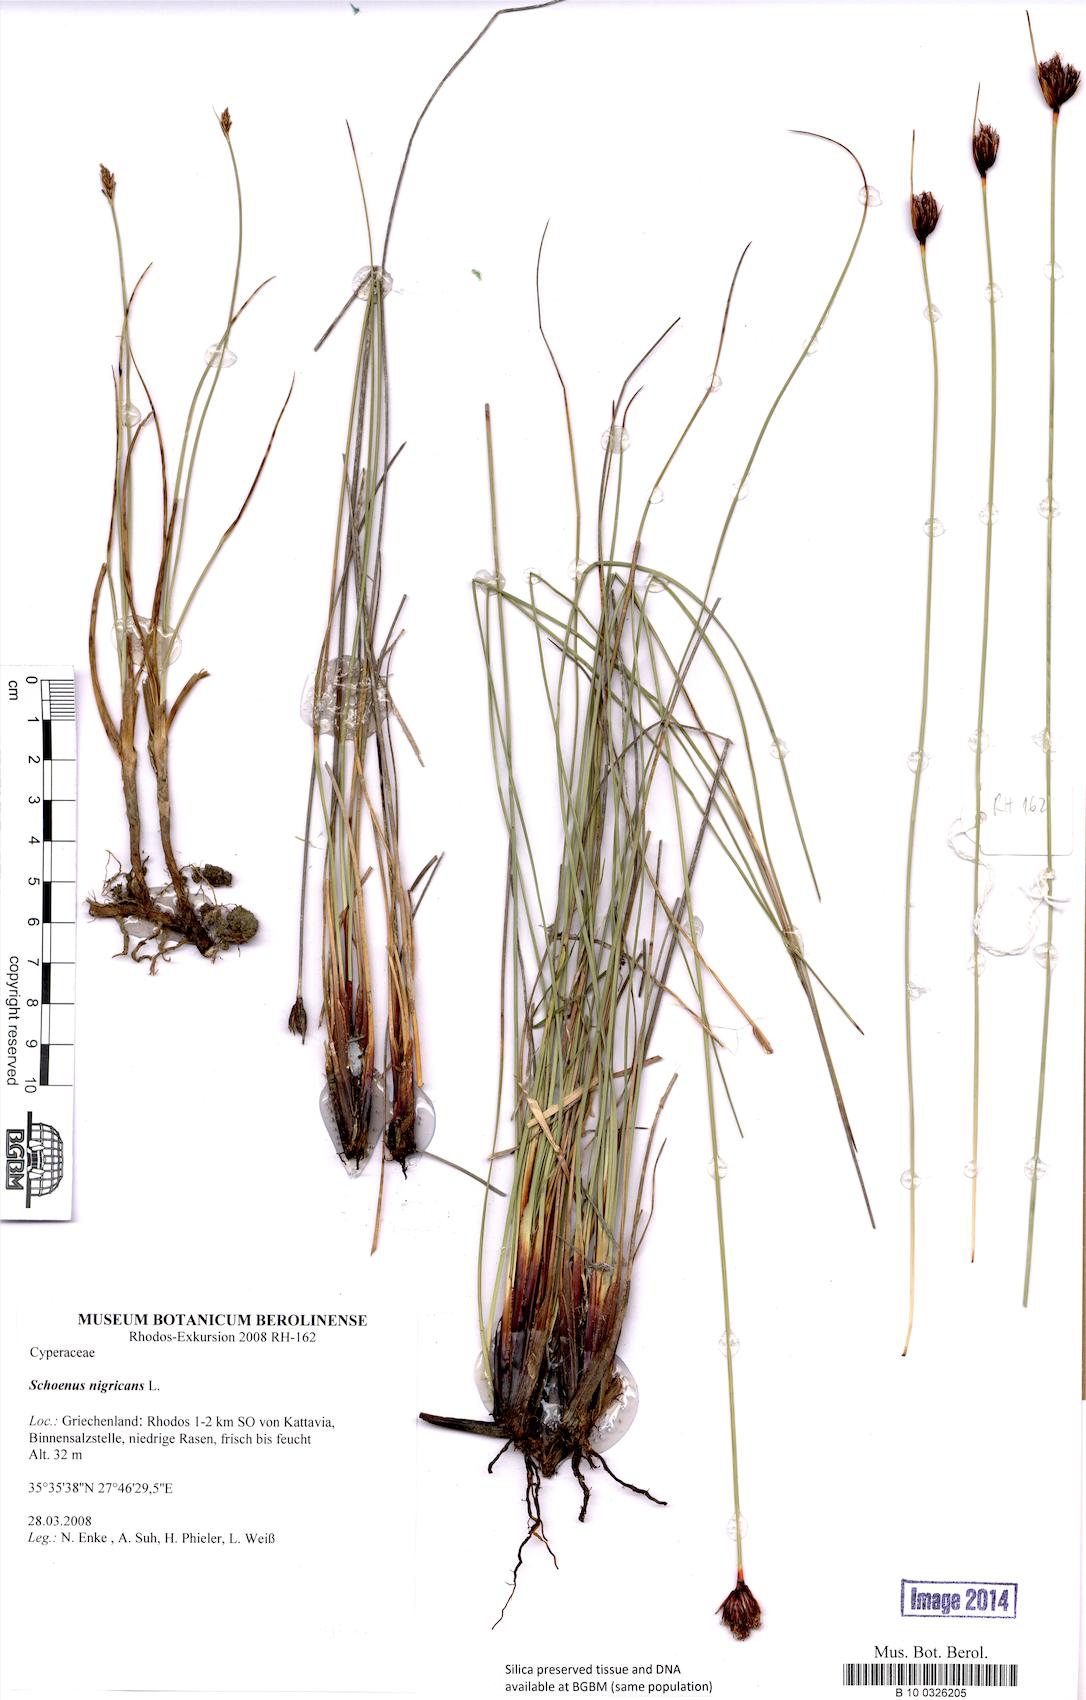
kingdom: Plantae
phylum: Tracheophyta
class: Liliopsida
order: Poales
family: Cyperaceae
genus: Schoenus
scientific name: Schoenus nigricans
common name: Black bog-rush
